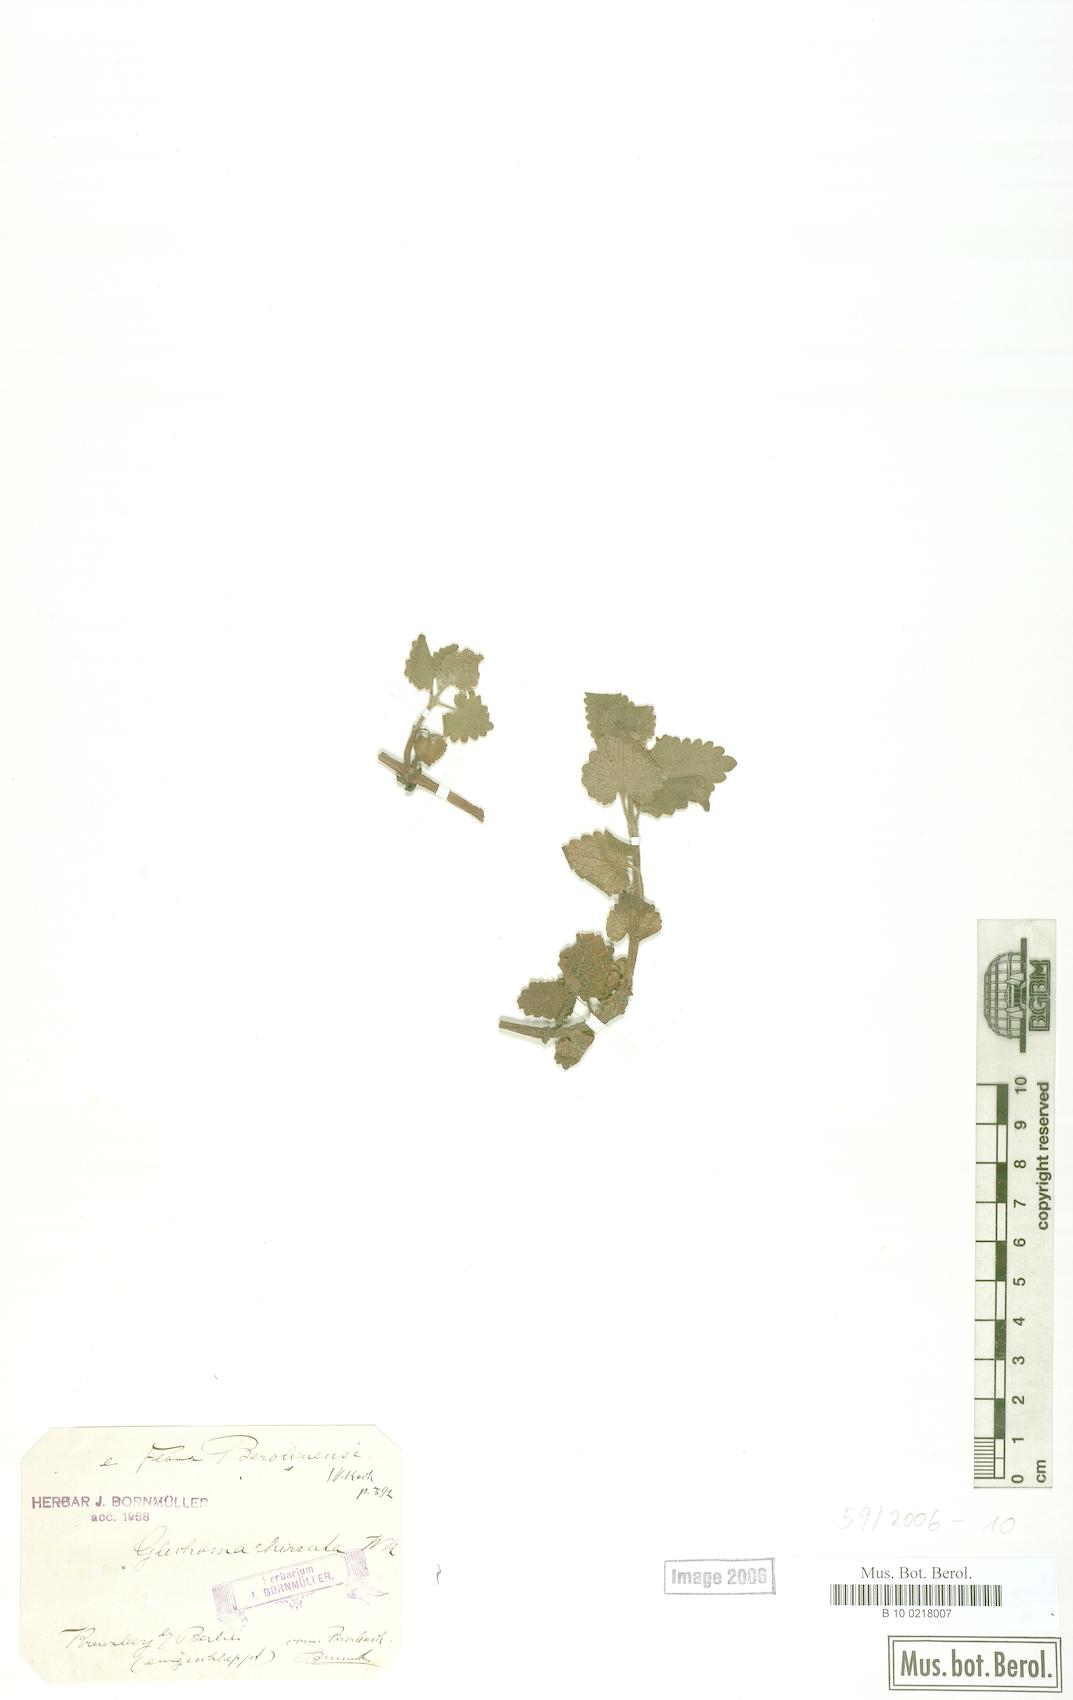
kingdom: Plantae
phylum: Tracheophyta
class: Magnoliopsida
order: Lamiales
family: Lamiaceae
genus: Glechoma
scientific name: Glechoma hirsuta
